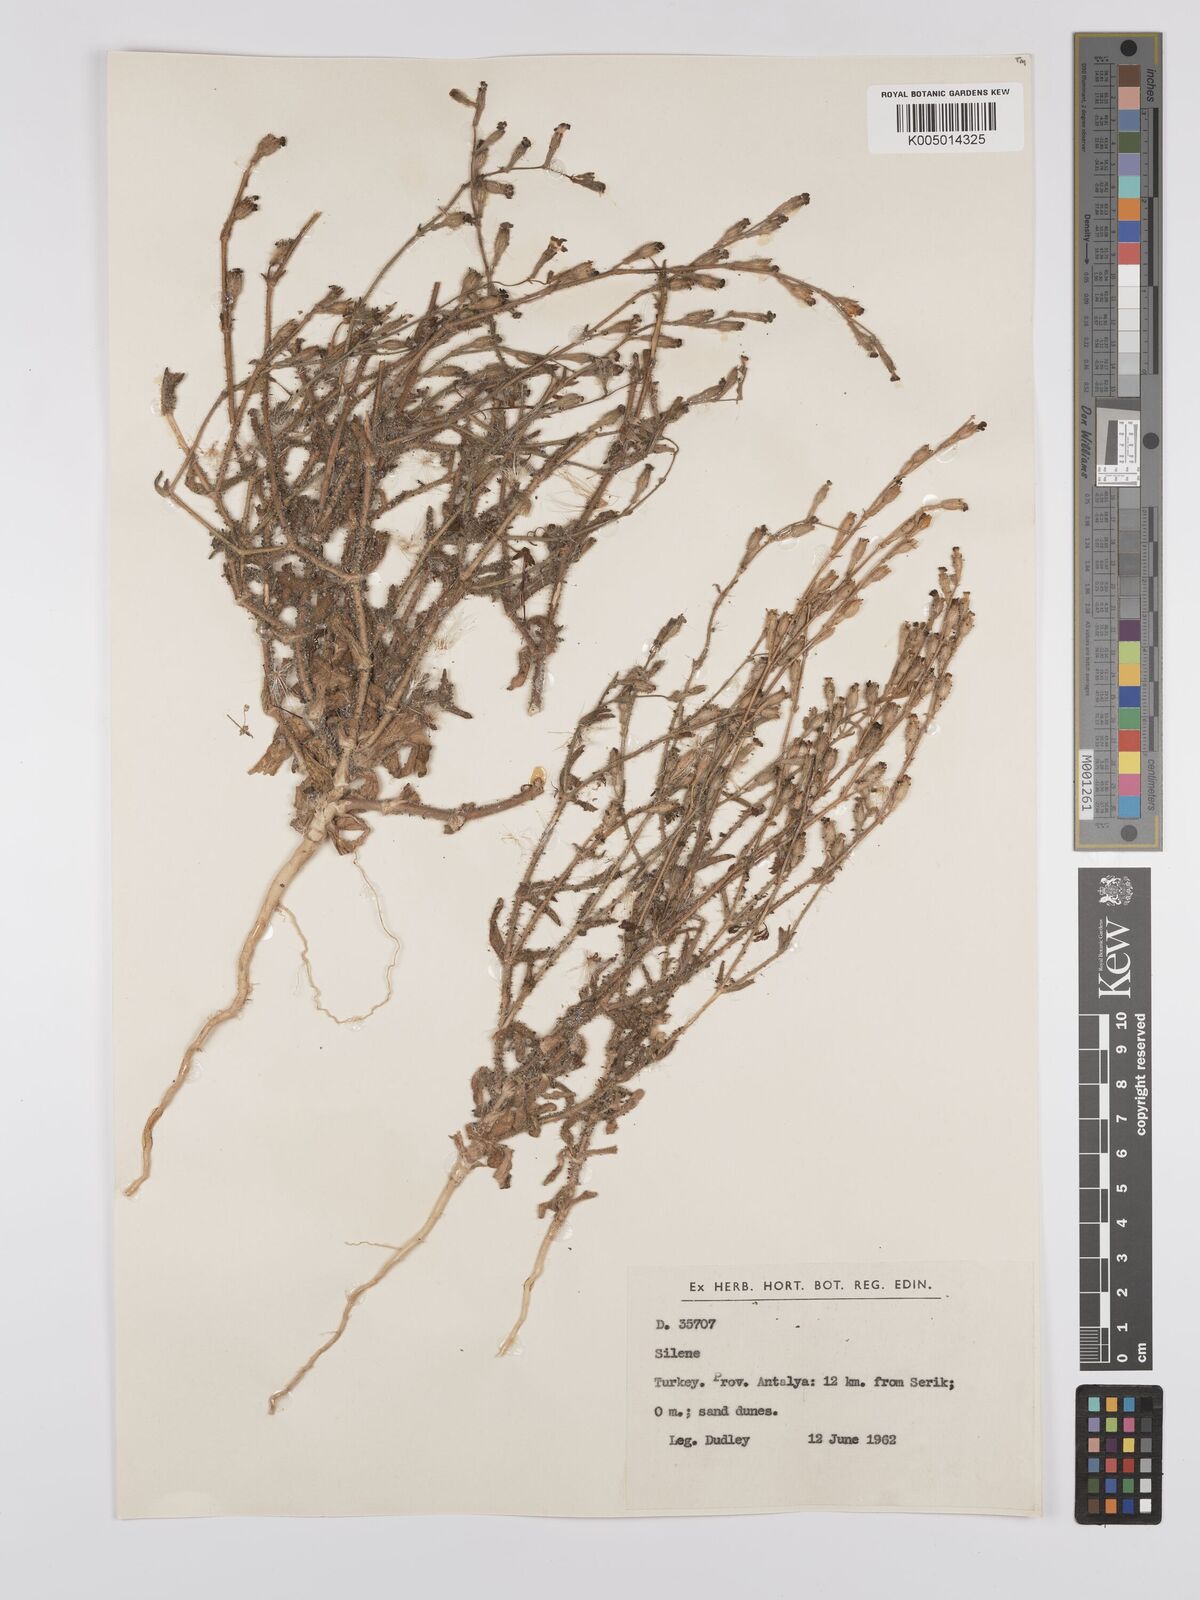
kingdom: Plantae
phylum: Tracheophyta
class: Magnoliopsida
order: Caryophyllales
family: Caryophyllaceae
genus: Silene
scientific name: Silene
